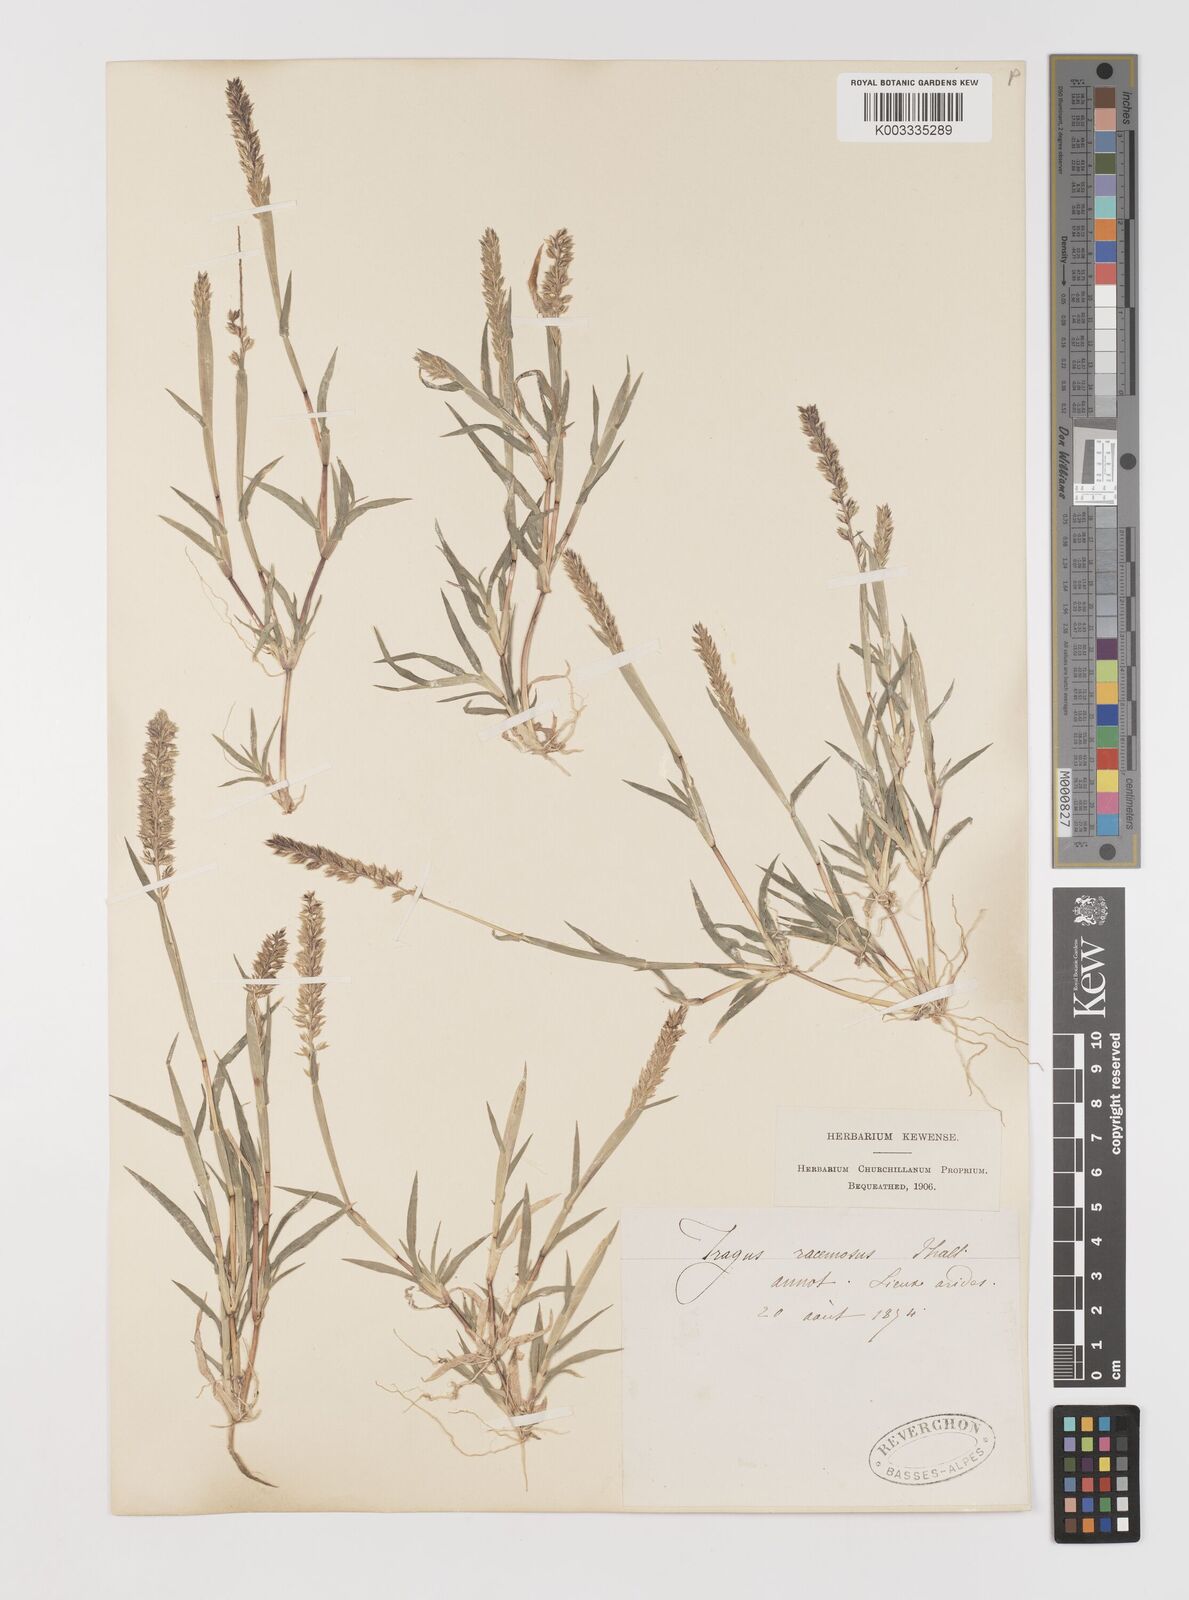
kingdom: Plantae
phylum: Tracheophyta
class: Liliopsida
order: Poales
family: Poaceae
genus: Tragus
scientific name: Tragus racemosus
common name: European bur-grass
